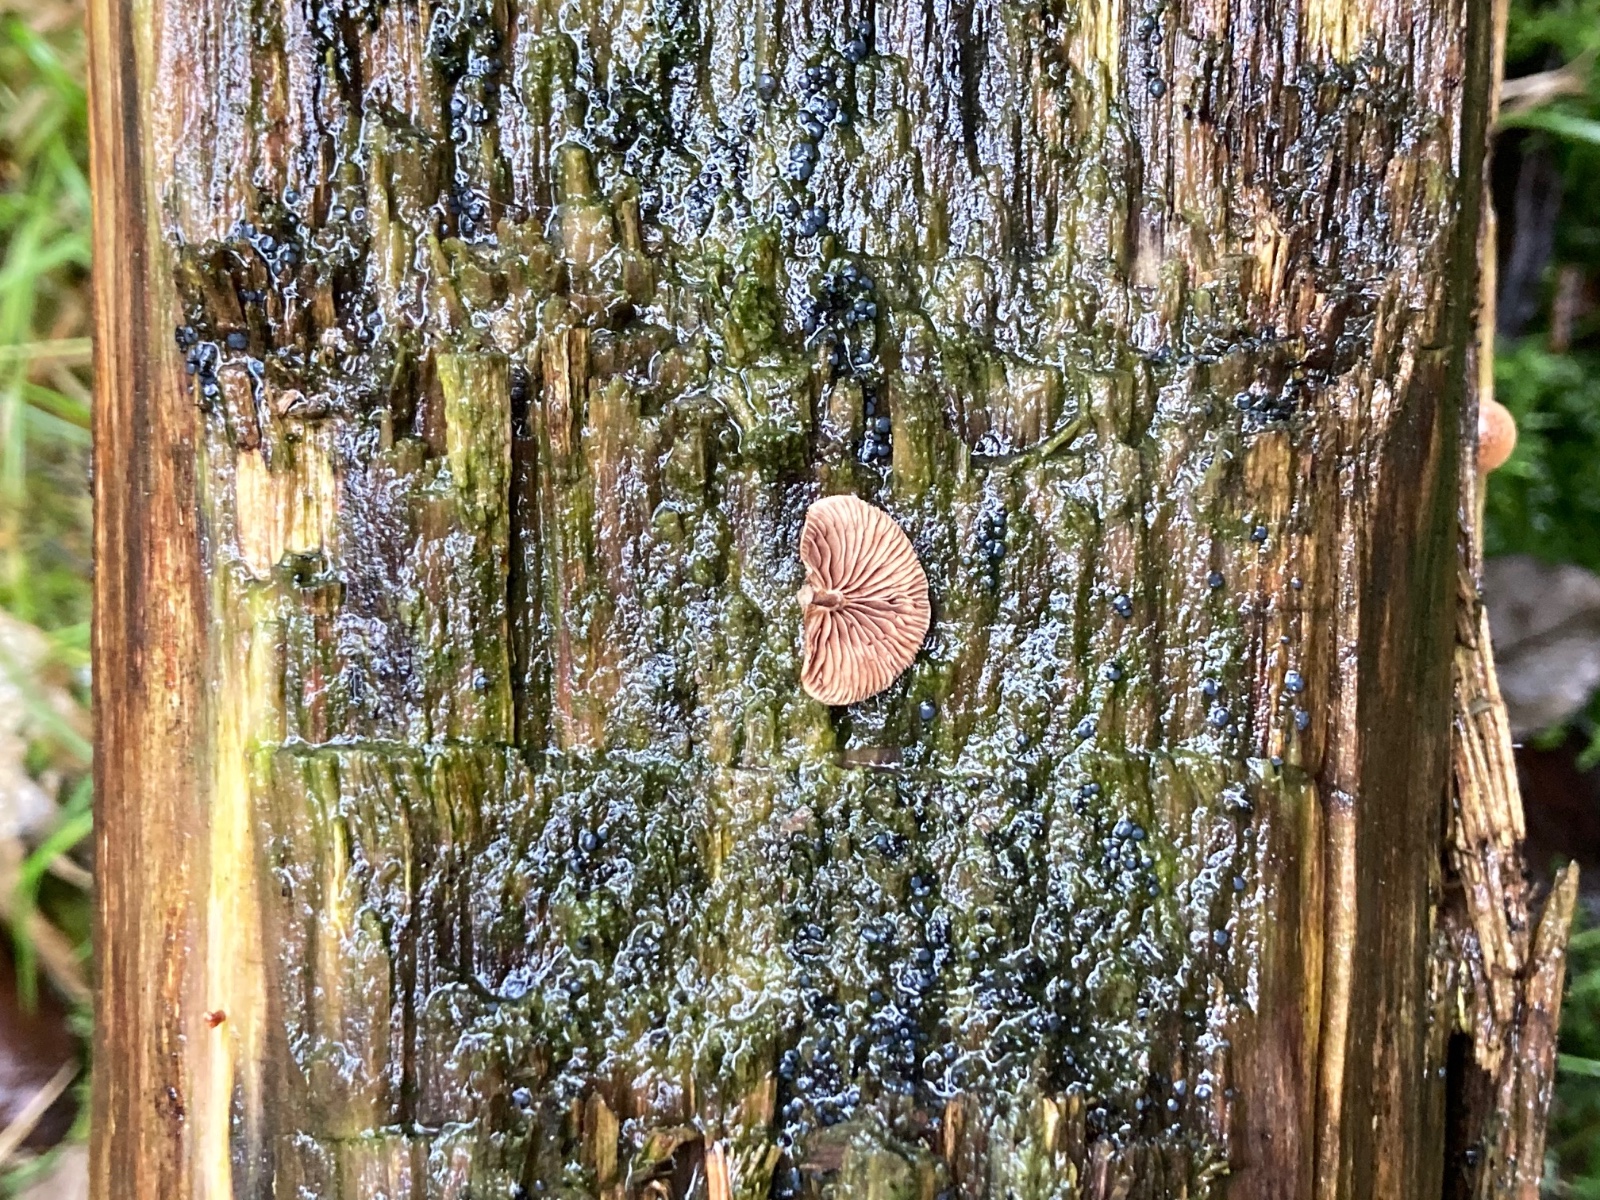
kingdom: Fungi
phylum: Basidiomycota
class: Agaricomycetes
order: Agaricales
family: Strophariaceae
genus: Deconica
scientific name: Deconica horizontalis
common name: ved-stråhat
